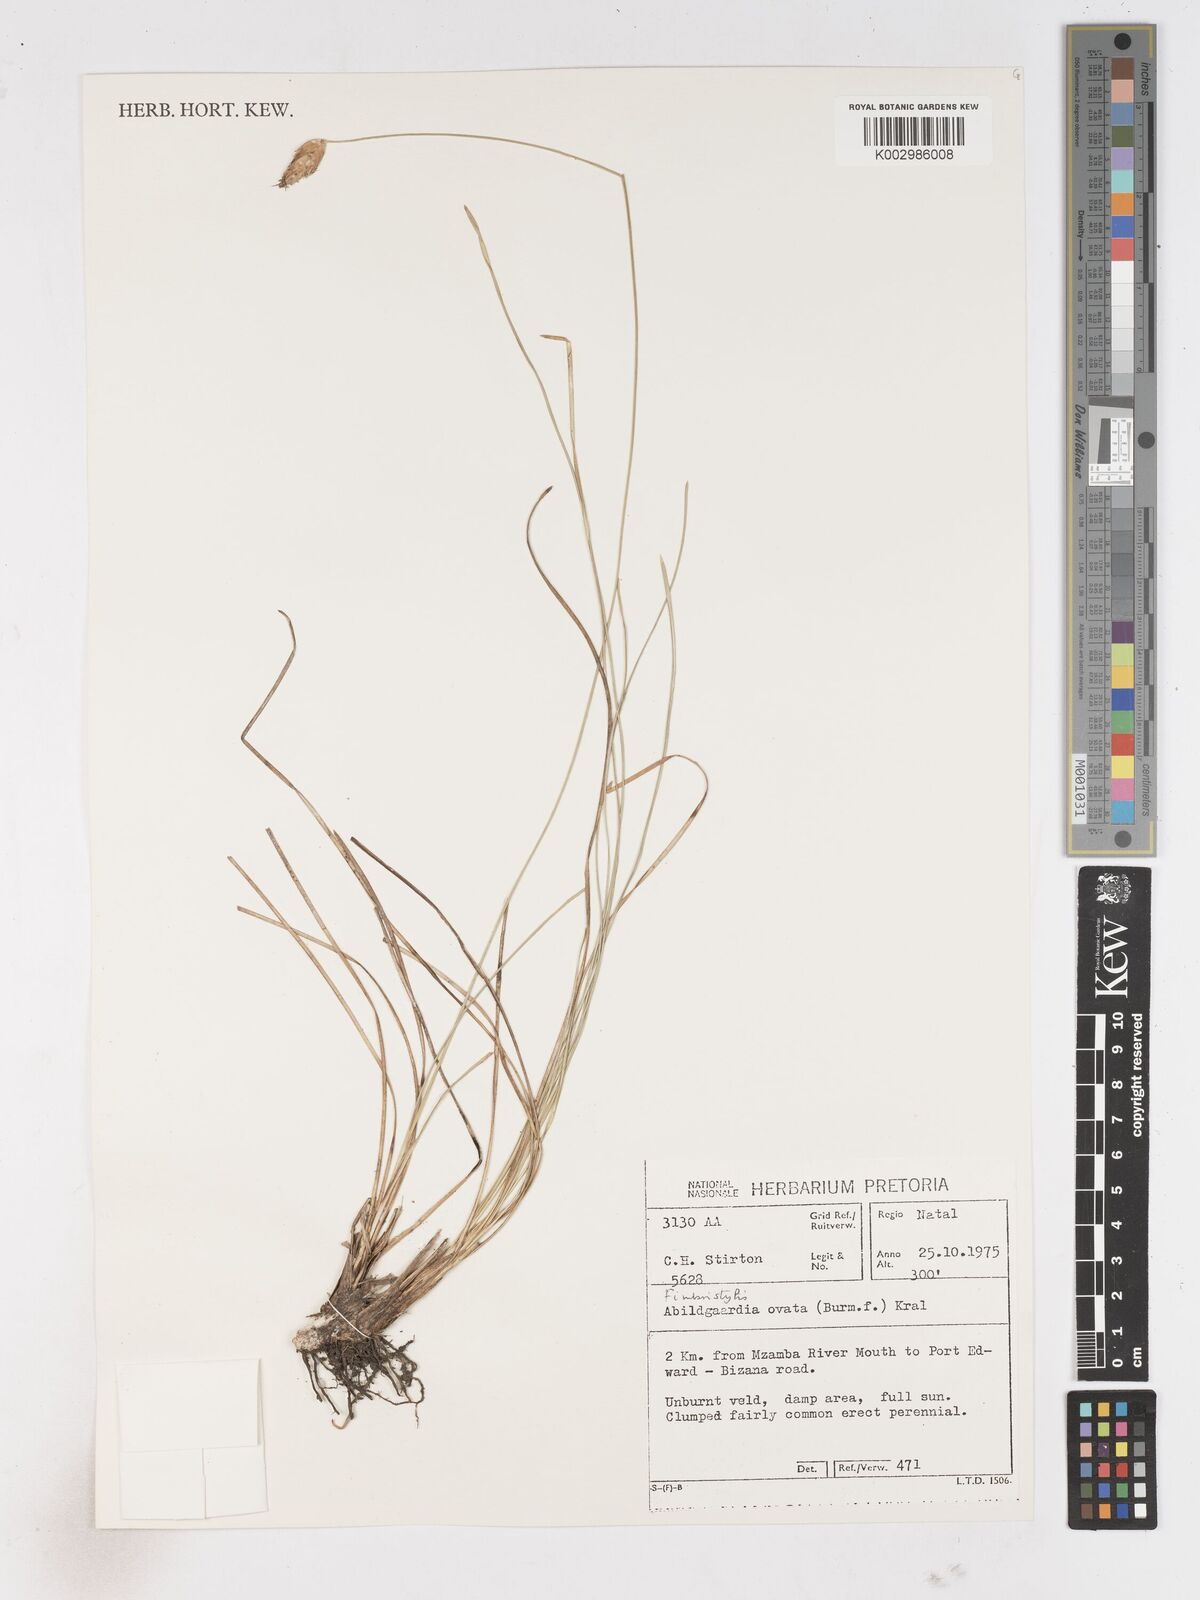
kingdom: Plantae
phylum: Tracheophyta
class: Liliopsida
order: Poales
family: Cyperaceae
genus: Abildgaardia
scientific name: Abildgaardia ovata
